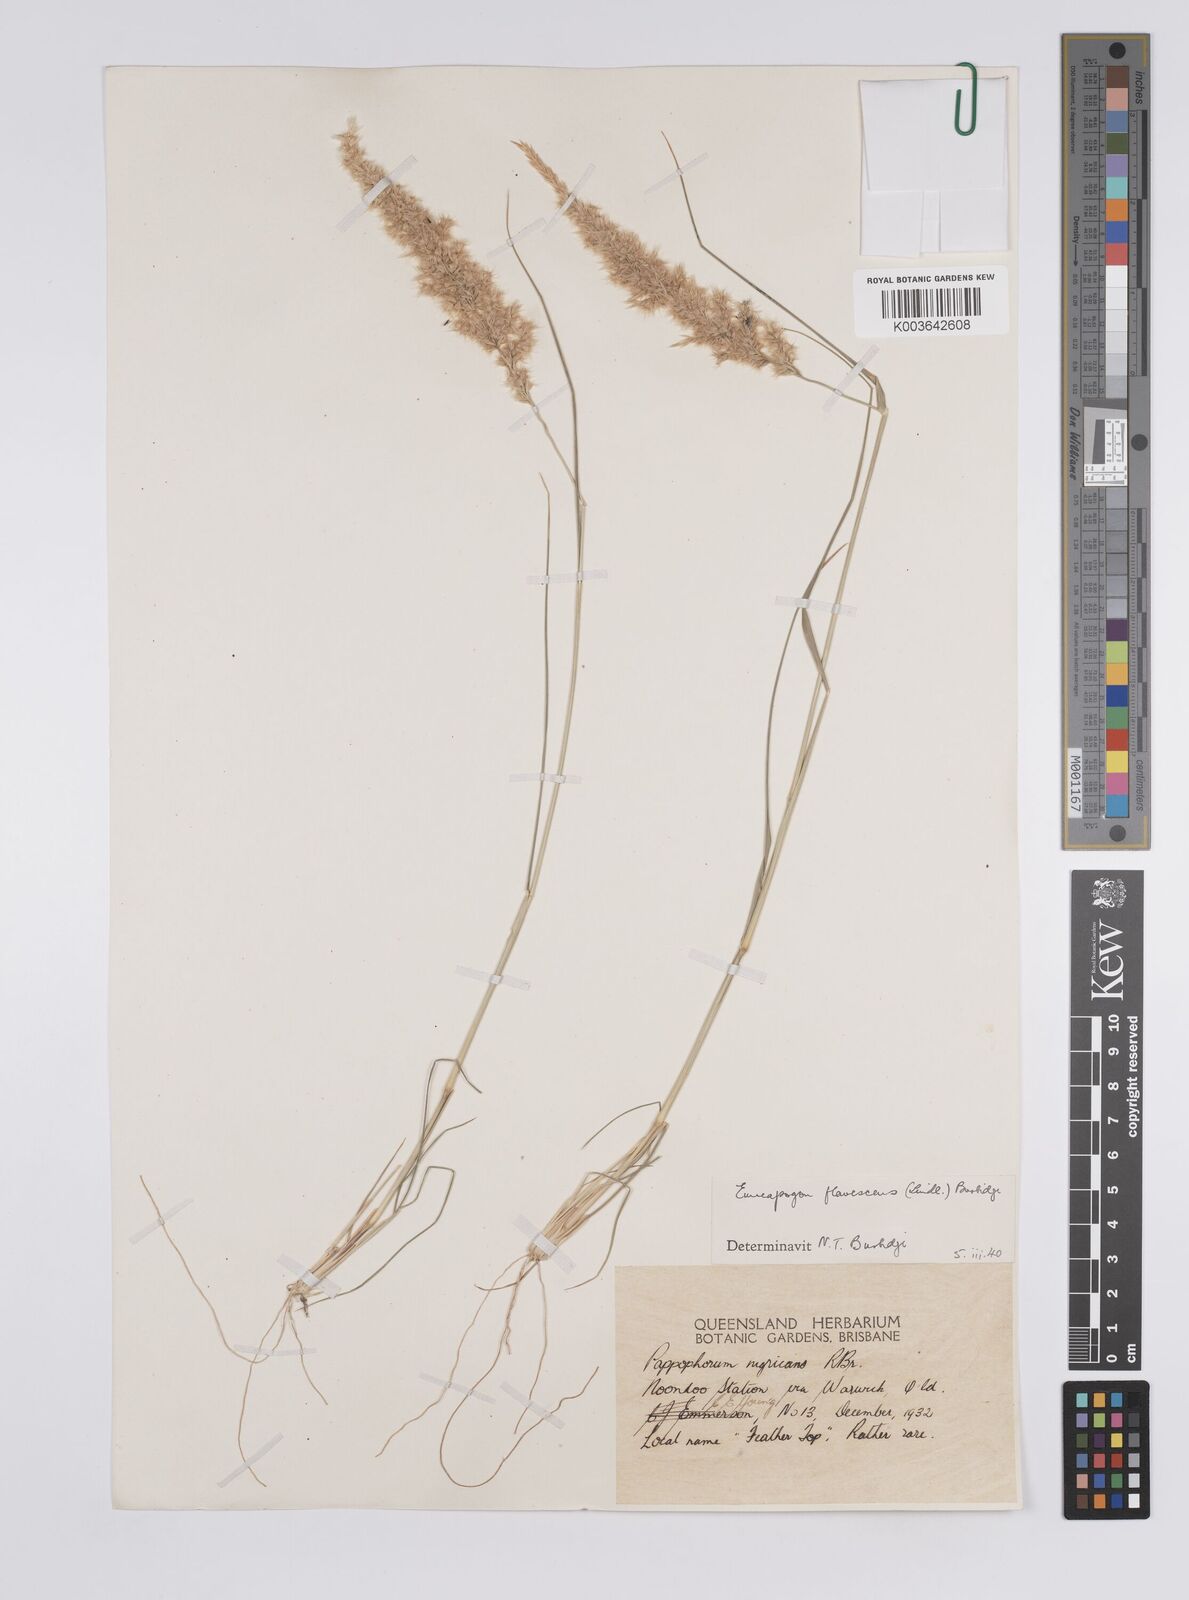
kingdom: Plantae
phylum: Tracheophyta
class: Liliopsida
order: Poales
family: Poaceae
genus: Enneapogon
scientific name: Enneapogon truncatus
